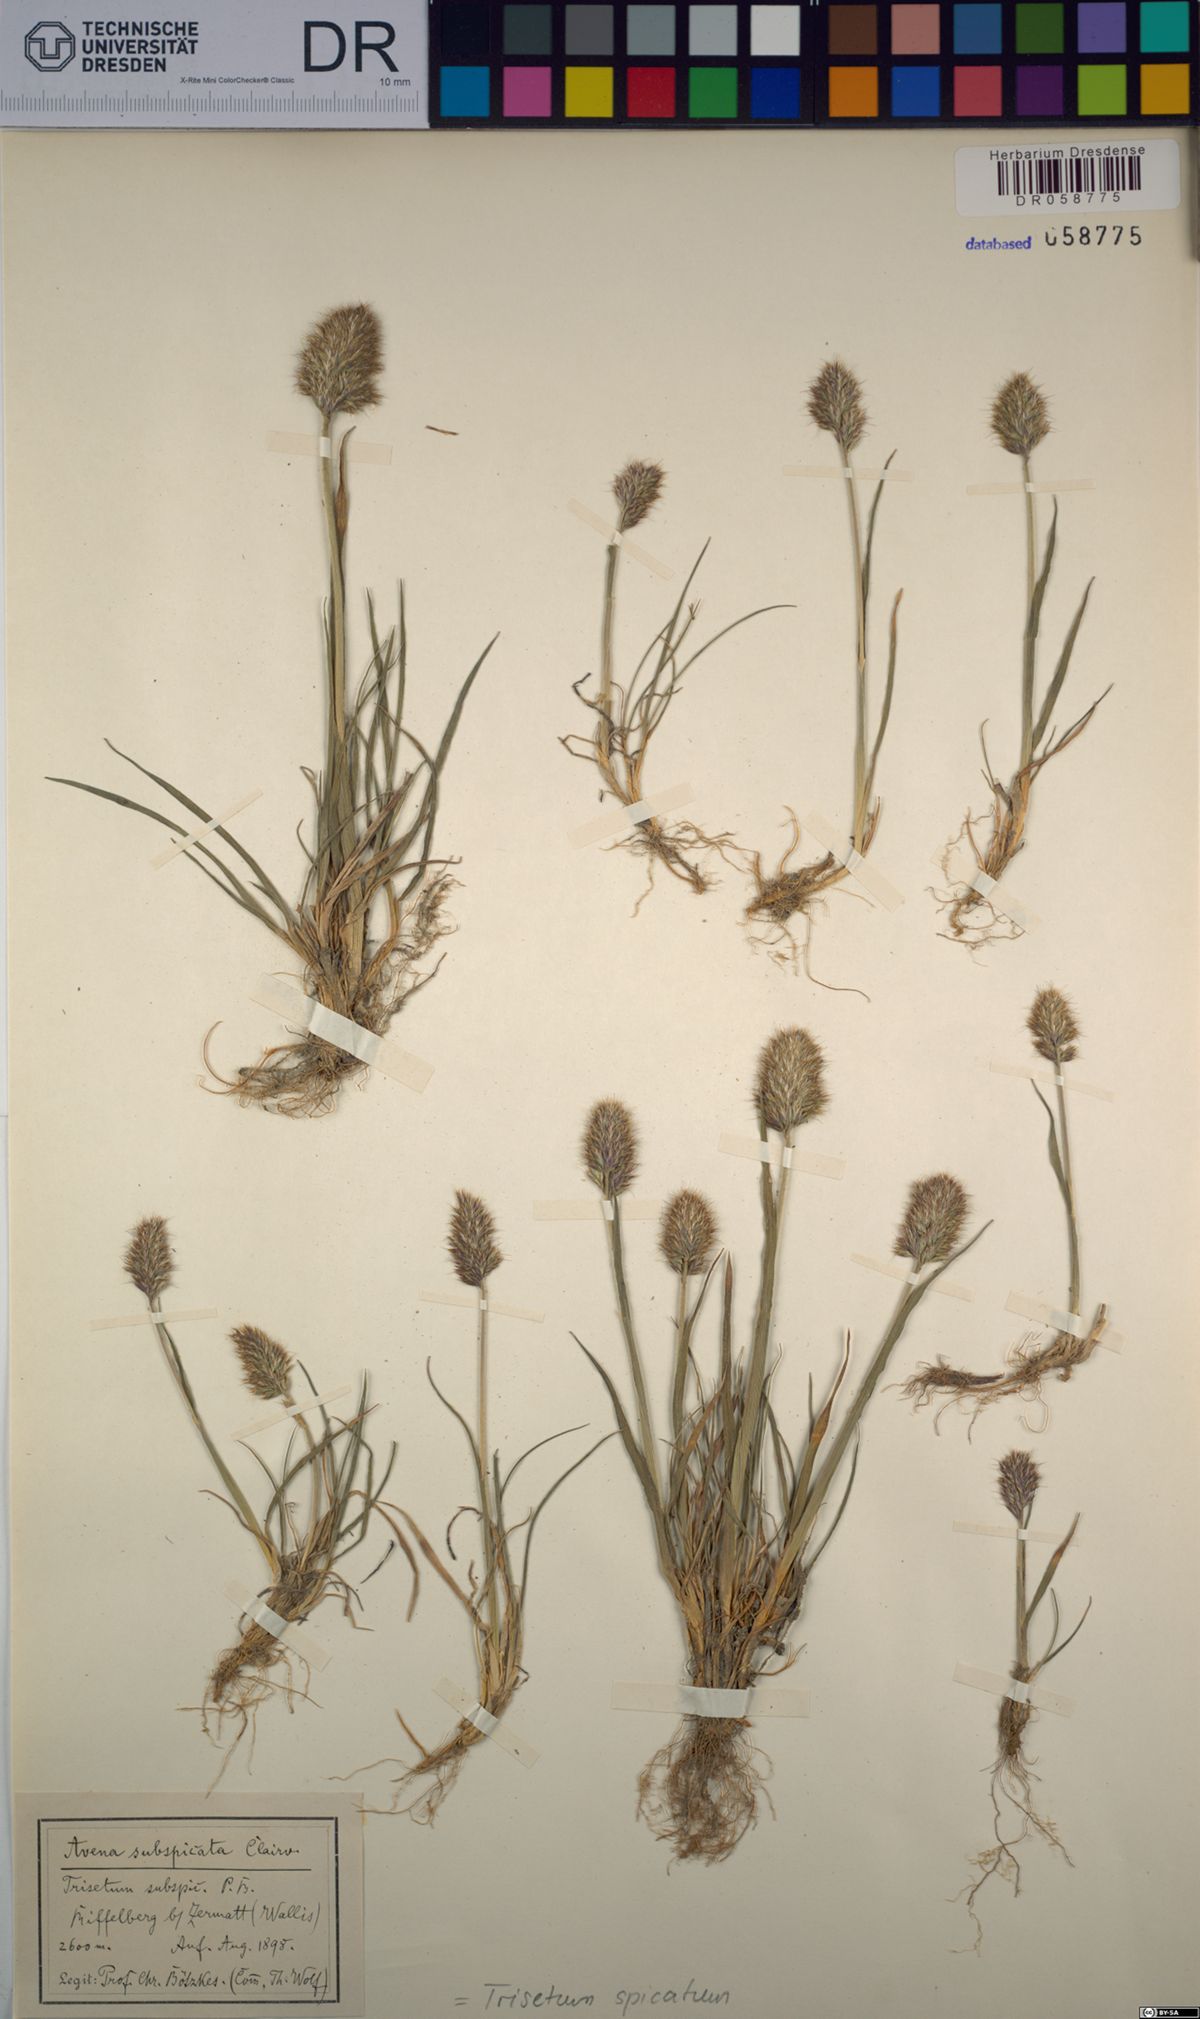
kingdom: Plantae
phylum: Tracheophyta
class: Liliopsida
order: Poales
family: Poaceae
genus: Koeleria
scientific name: Koeleria spicata
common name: Mountain trisetum
